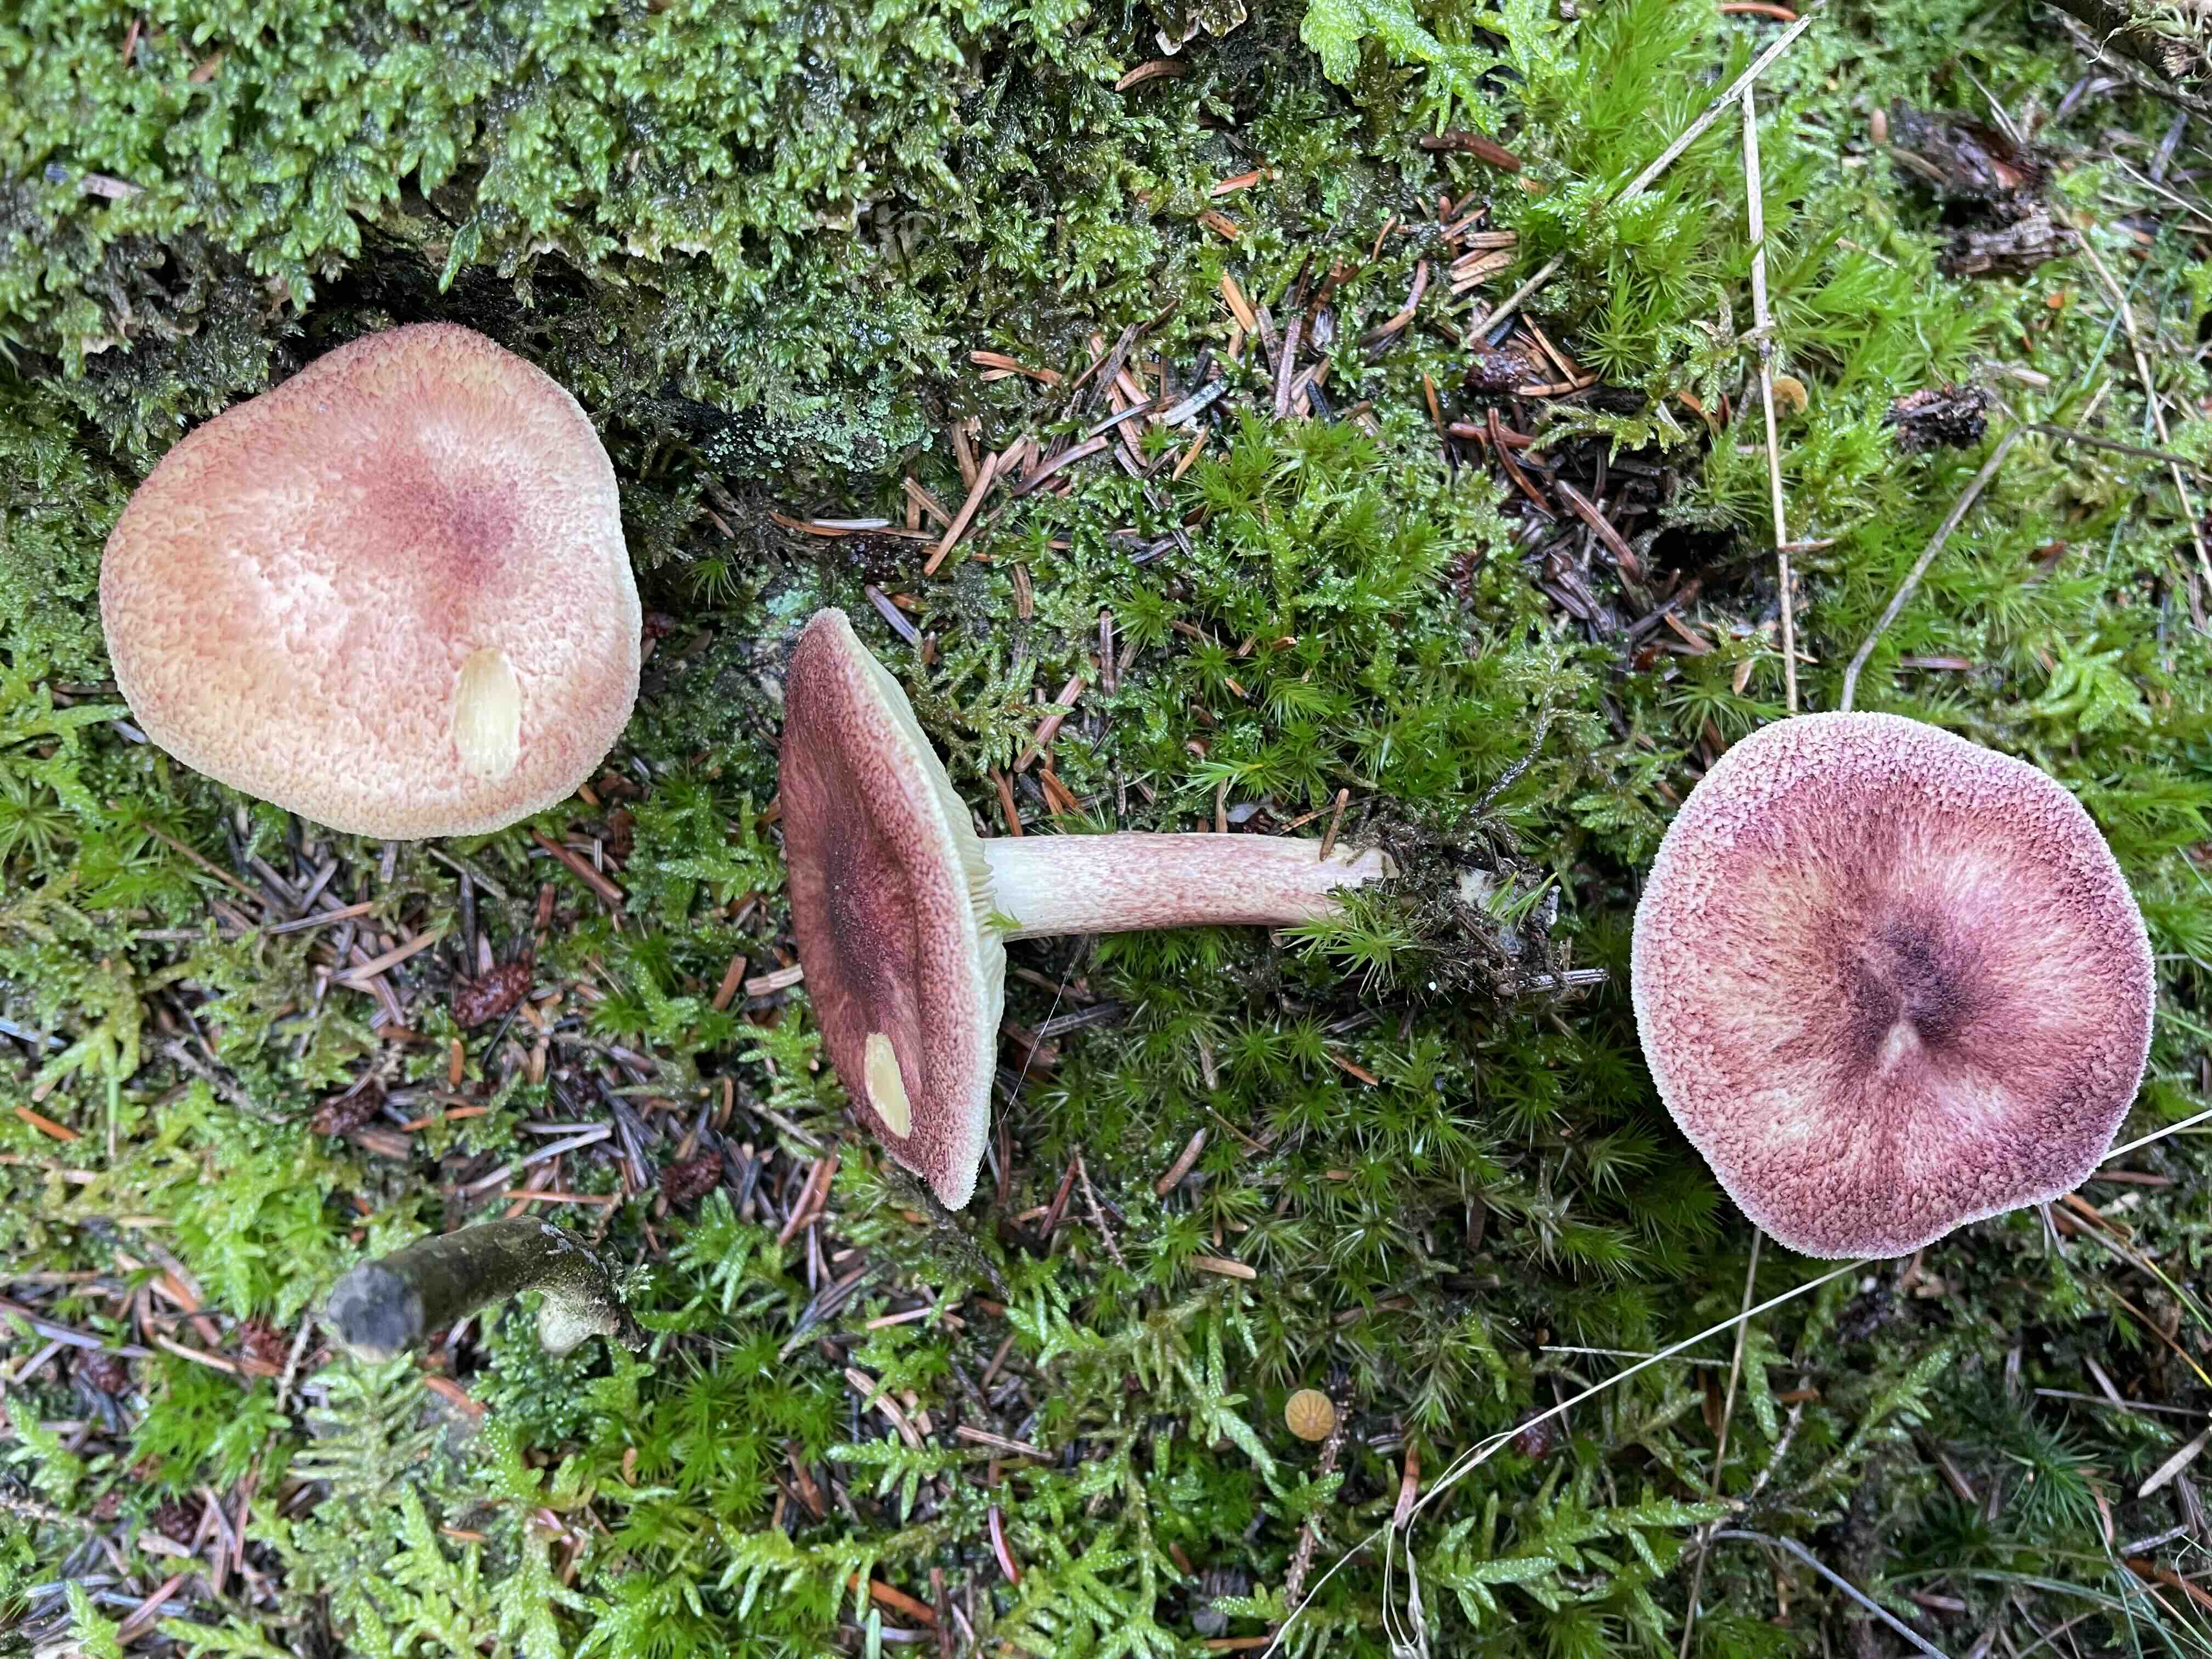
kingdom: Fungi
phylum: Basidiomycota
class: Agaricomycetes
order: Agaricales
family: Tricholomataceae
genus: Tricholomopsis
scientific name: Tricholomopsis rutilans
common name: purpur-væbnerhat
